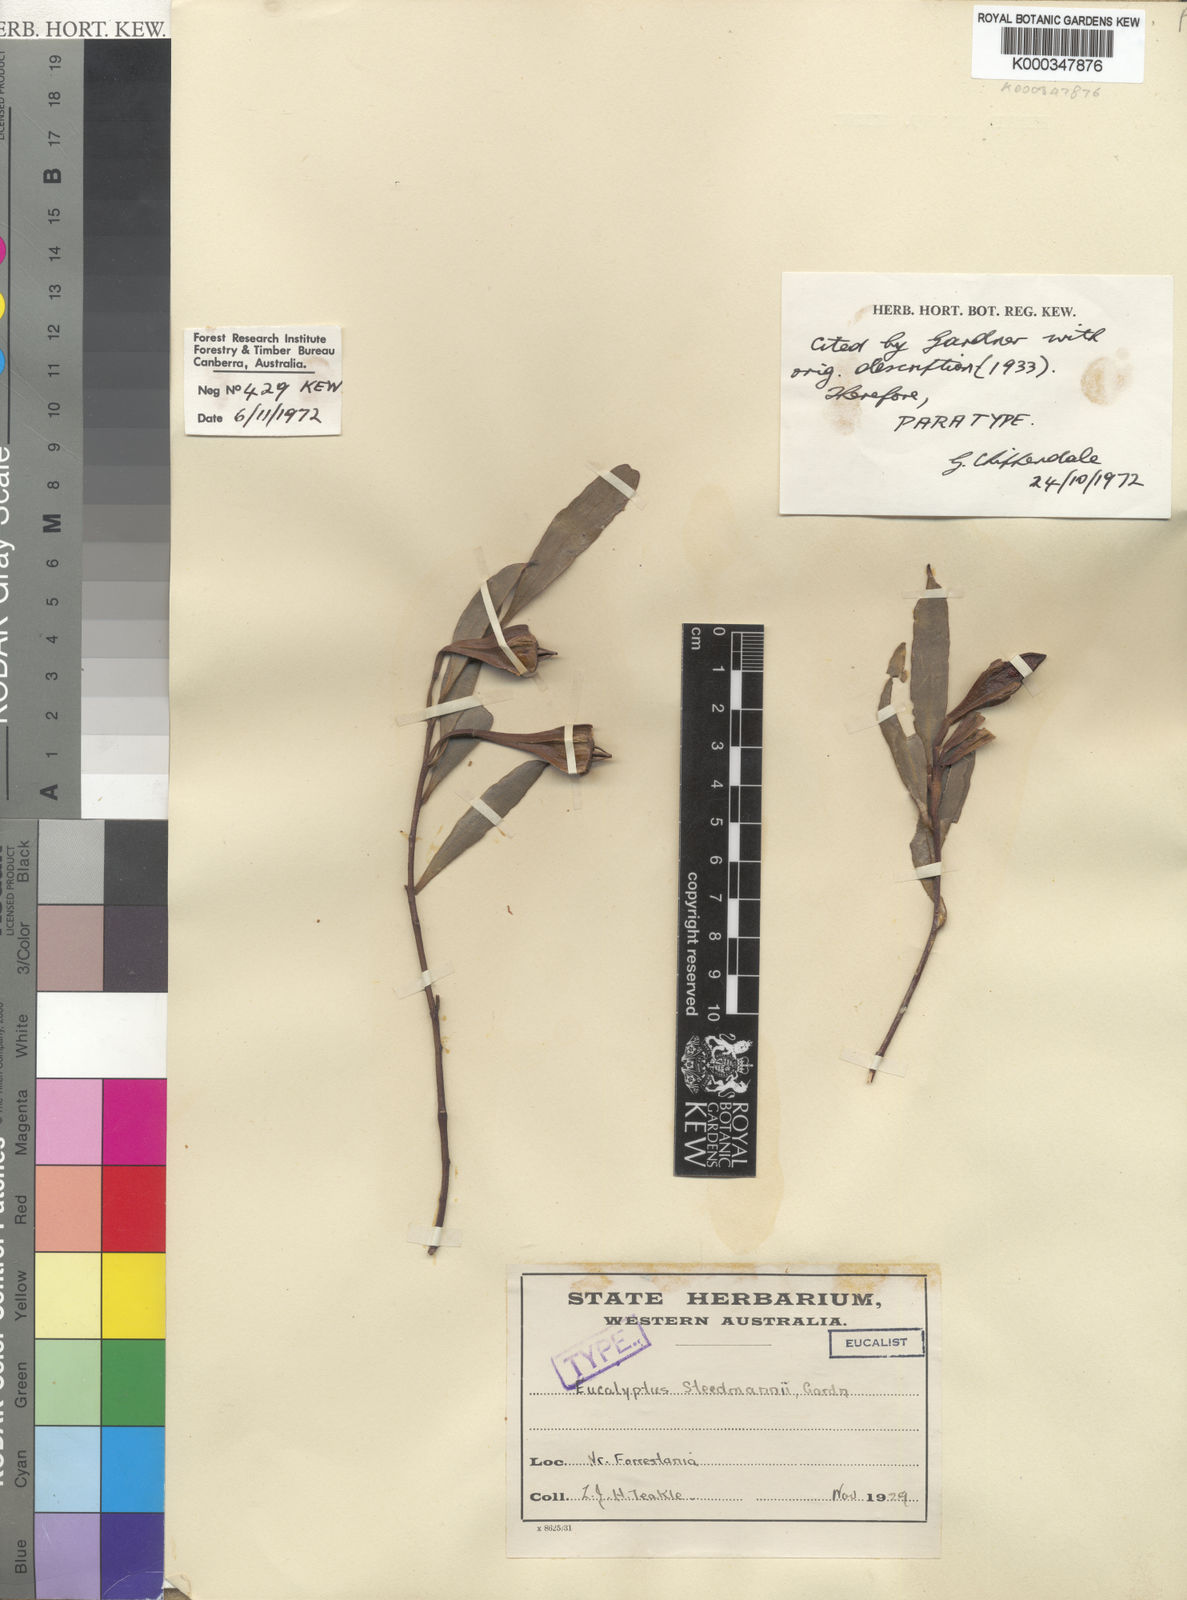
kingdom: Plantae
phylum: Tracheophyta
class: Magnoliopsida
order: Myrtales
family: Myrtaceae
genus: Eucalyptus
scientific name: Eucalyptus steedmanii
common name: Steedman's gum
